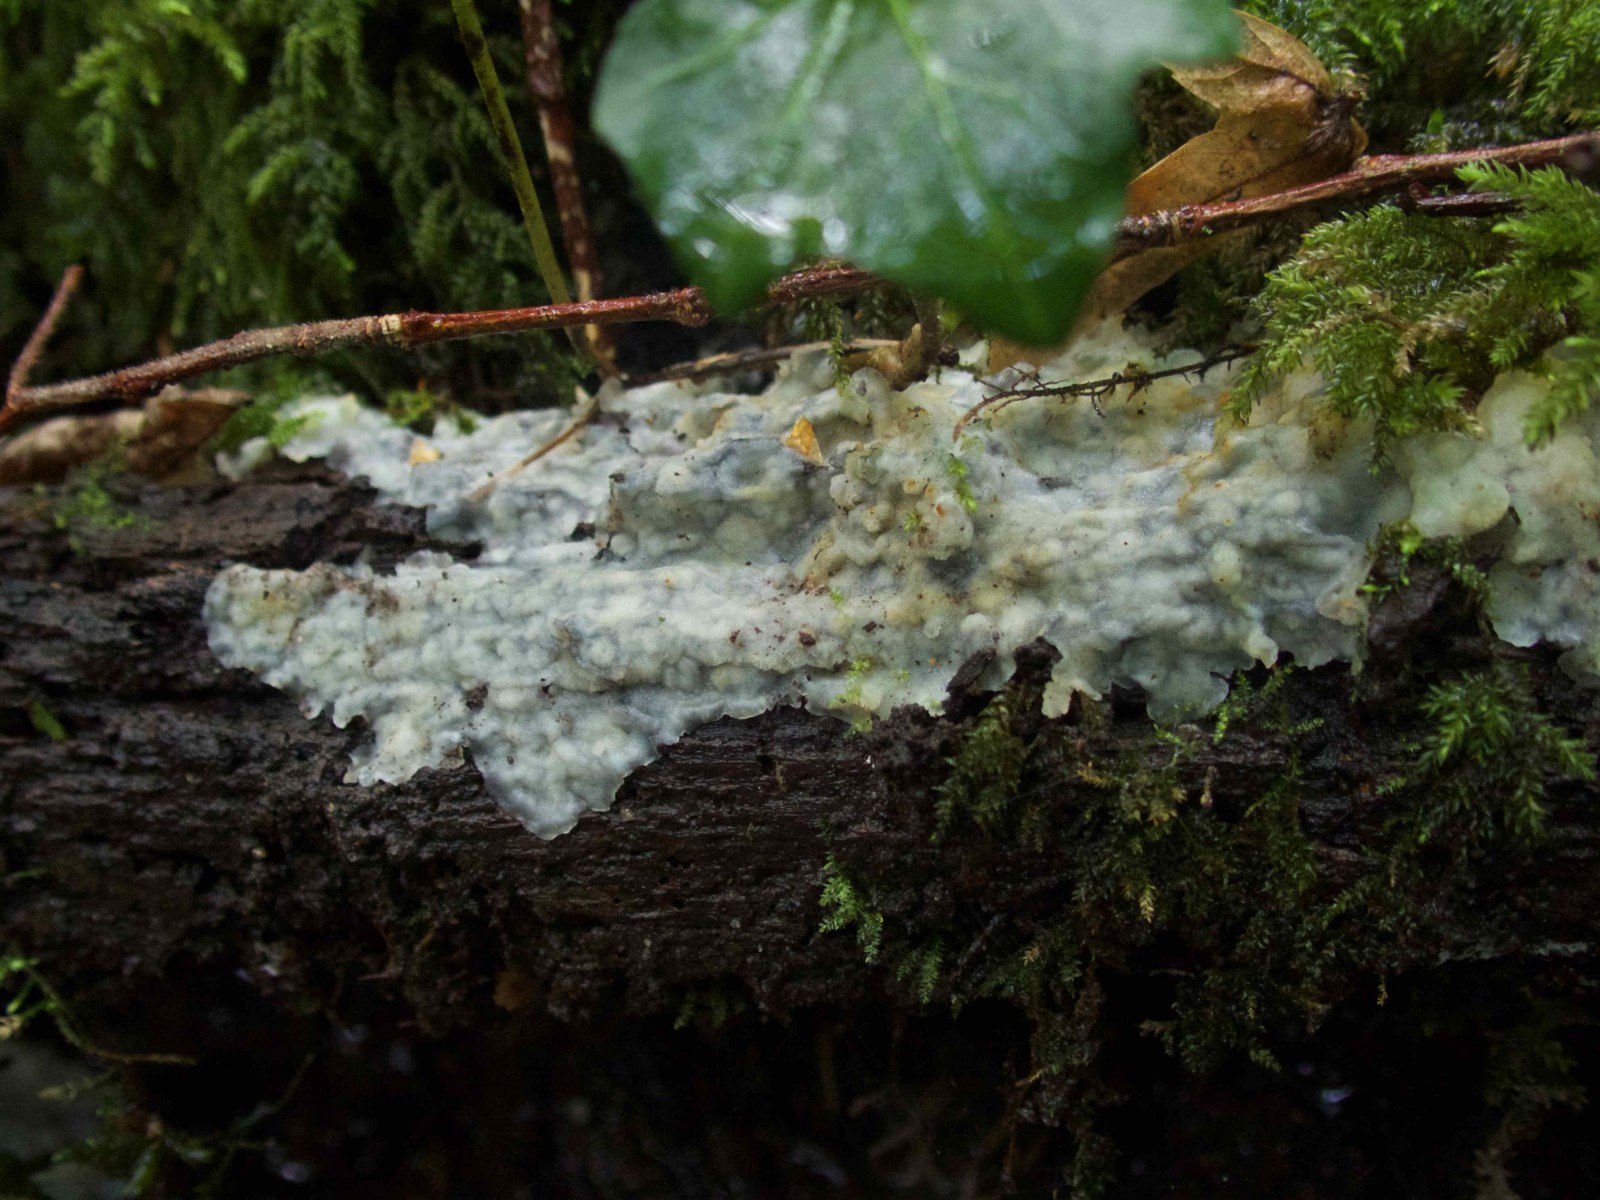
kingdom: Fungi
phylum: Basidiomycota
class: Agaricomycetes
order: Polyporales
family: Meruliaceae
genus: Physisporinus
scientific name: Physisporinus vitreus
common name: mastesvamp
